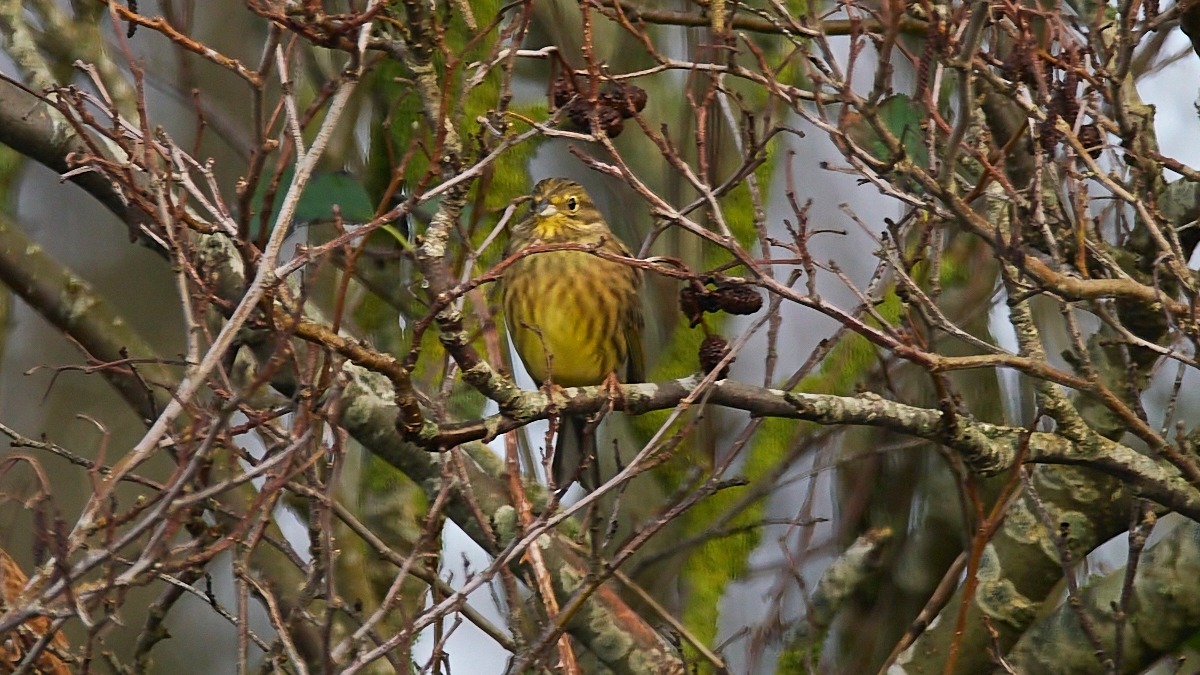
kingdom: Animalia
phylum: Chordata
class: Aves
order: Passeriformes
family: Emberizidae
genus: Emberiza
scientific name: Emberiza citrinella
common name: Gulspurv
